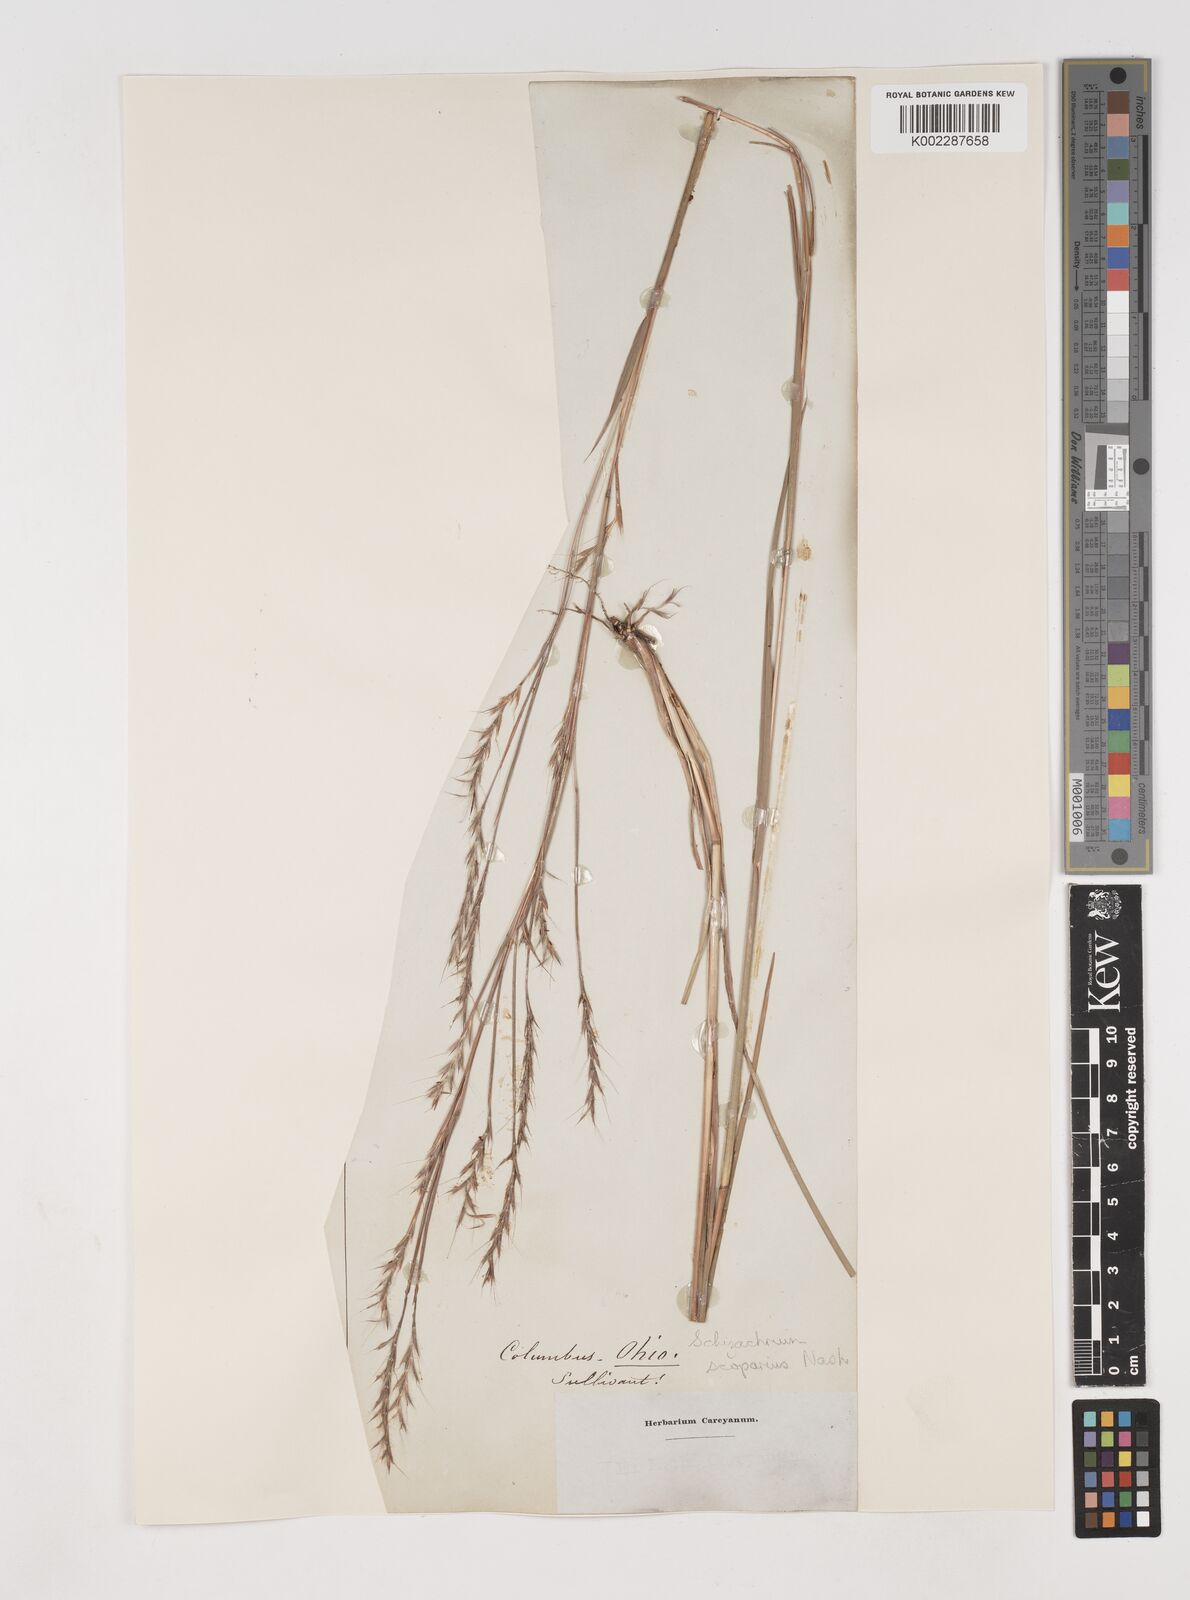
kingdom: Plantae
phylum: Tracheophyta
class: Liliopsida
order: Poales
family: Poaceae
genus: Schizachyrium
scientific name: Schizachyrium scoparium
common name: Little bluestem
